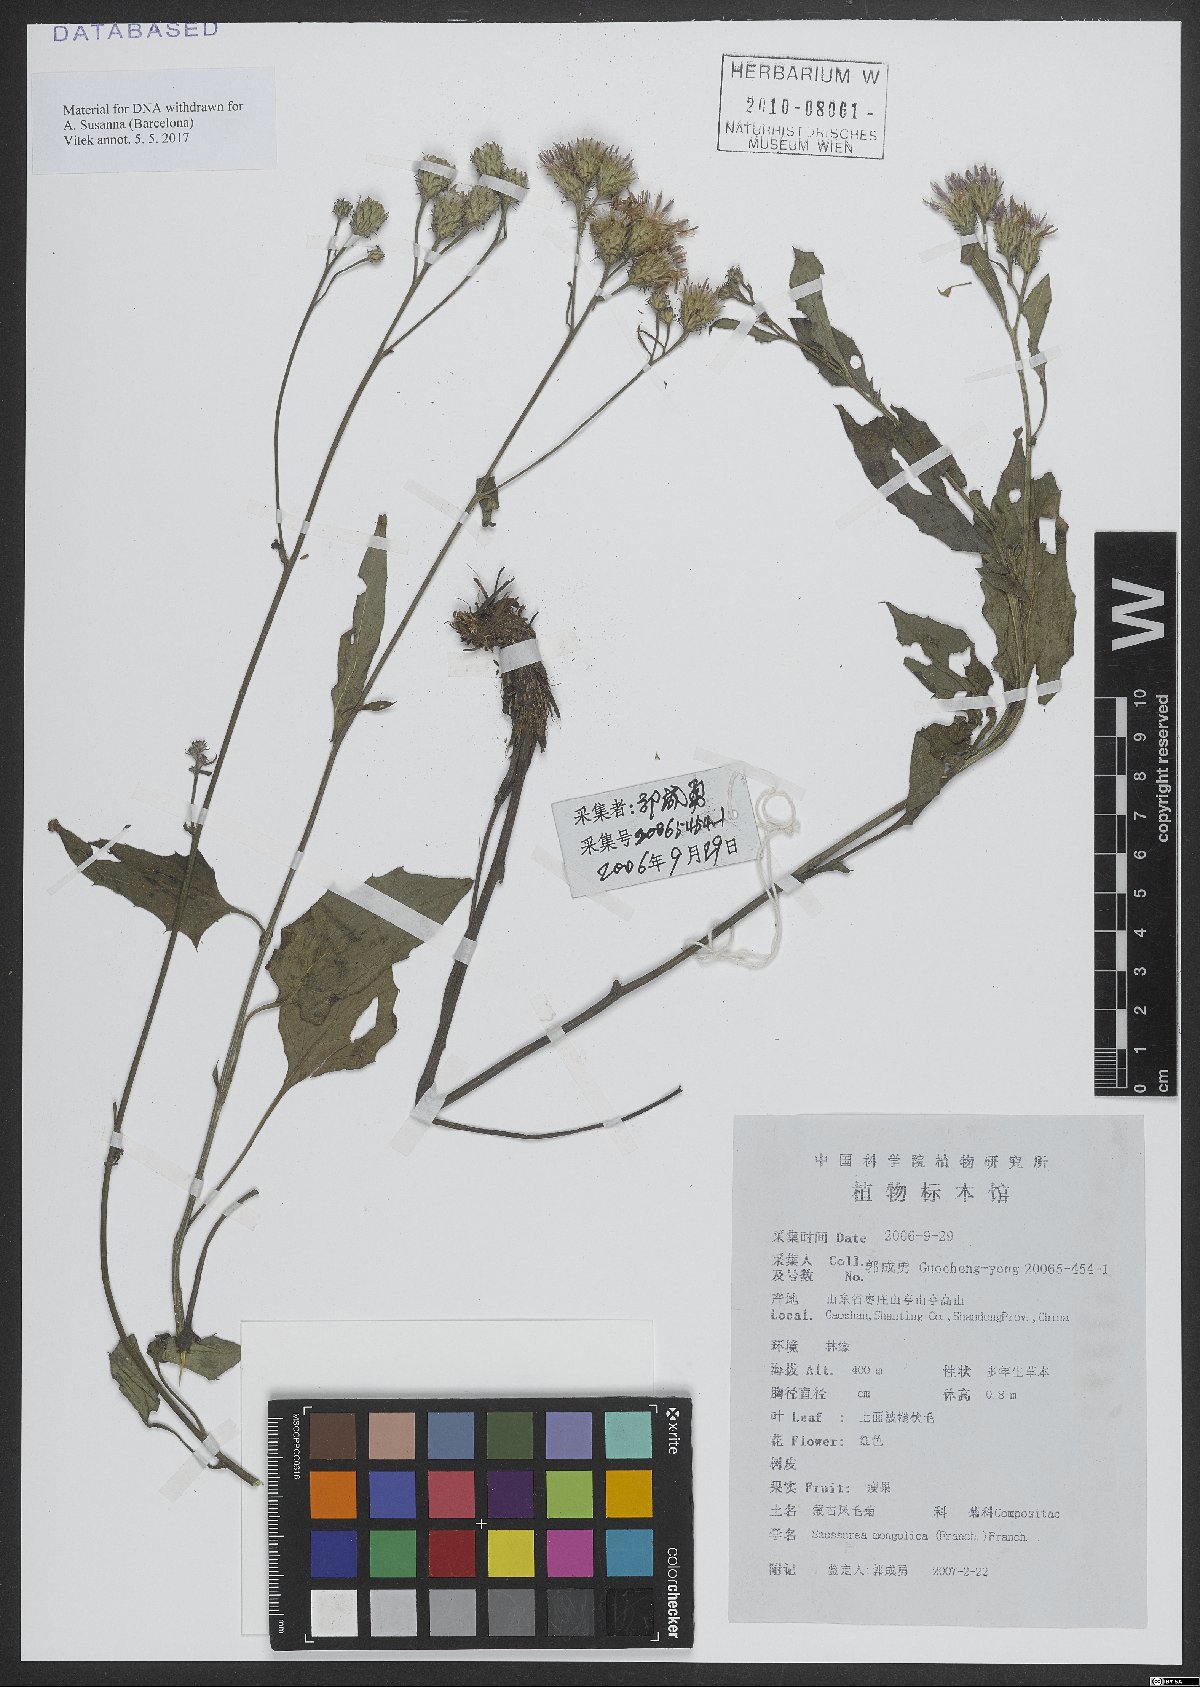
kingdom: Plantae
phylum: Tracheophyta
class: Magnoliopsida
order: Asterales
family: Asteraceae
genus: Saussurea
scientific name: Saussurea mongolica
